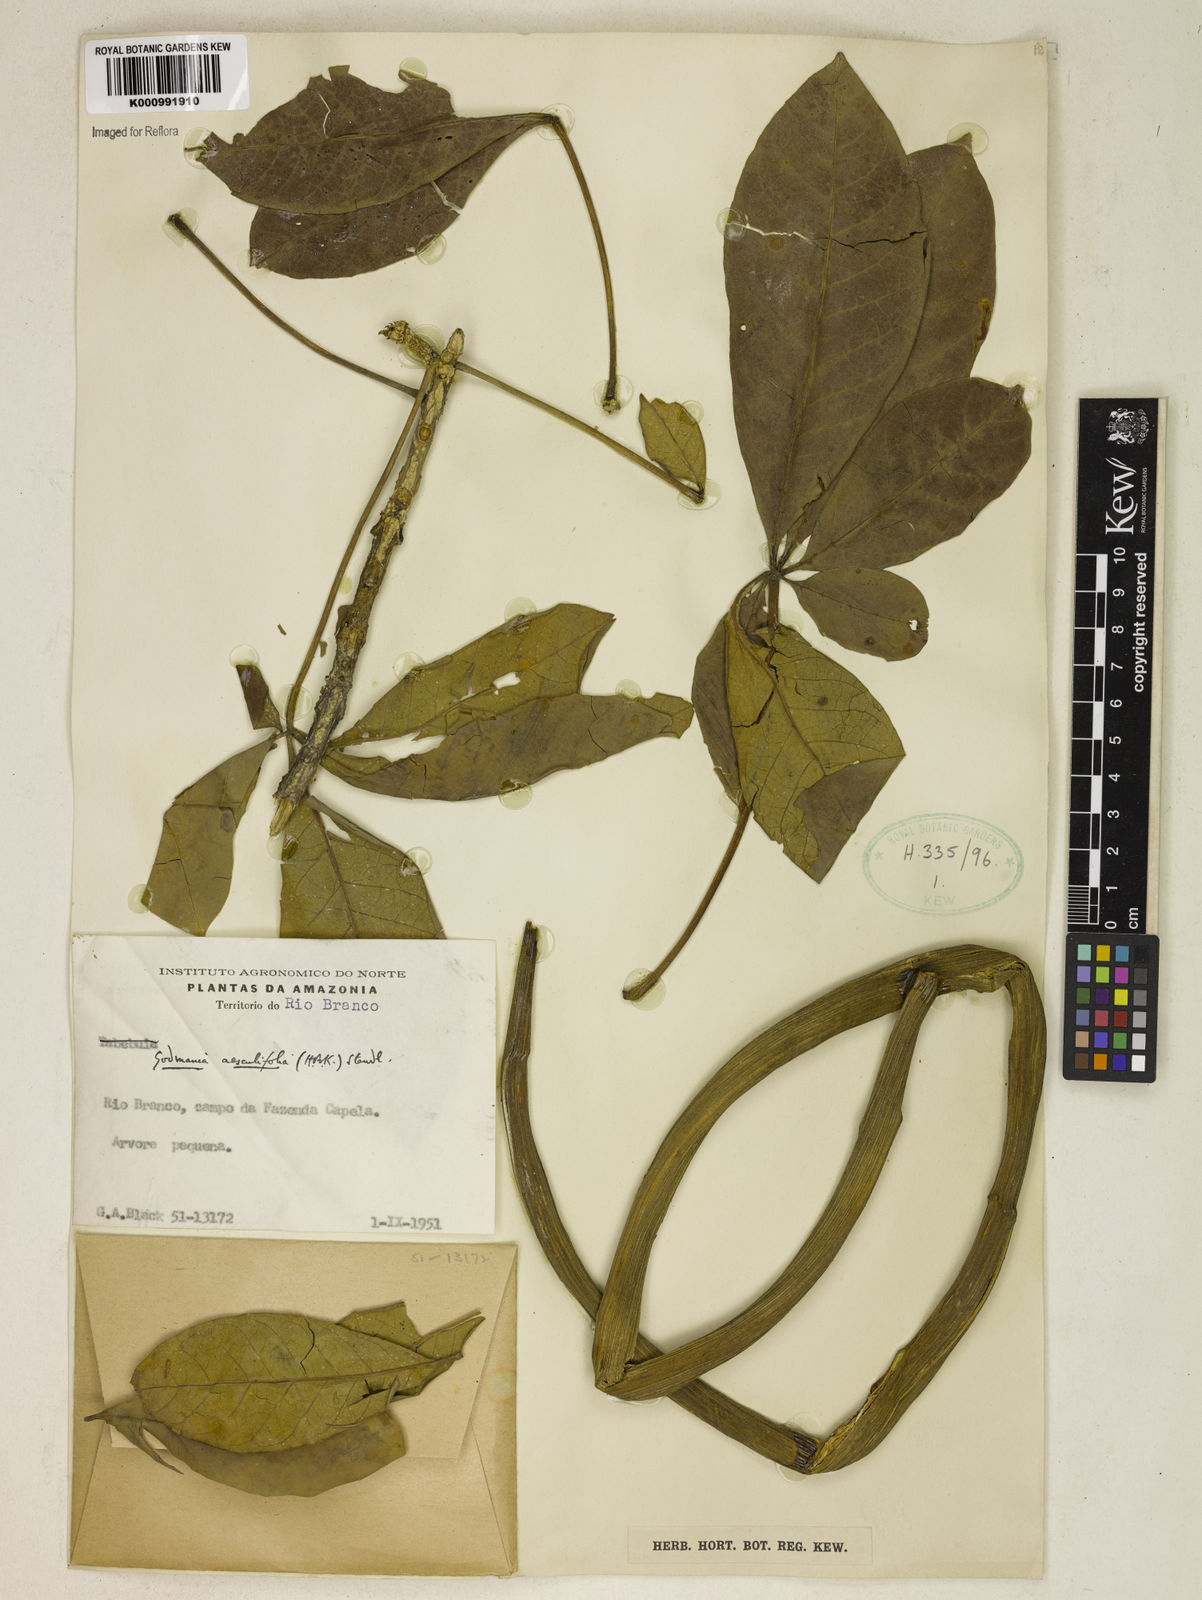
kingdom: Plantae
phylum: Tracheophyta
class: Magnoliopsida
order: Lamiales
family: Bignoniaceae
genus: Godmania
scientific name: Godmania aesculifolia
